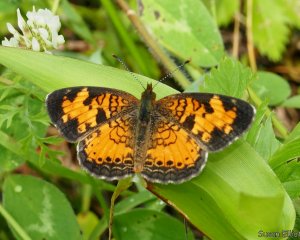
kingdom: Animalia
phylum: Arthropoda
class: Insecta
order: Lepidoptera
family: Nymphalidae
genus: Phyciodes
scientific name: Phyciodes tharos
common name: Northern Crescent
